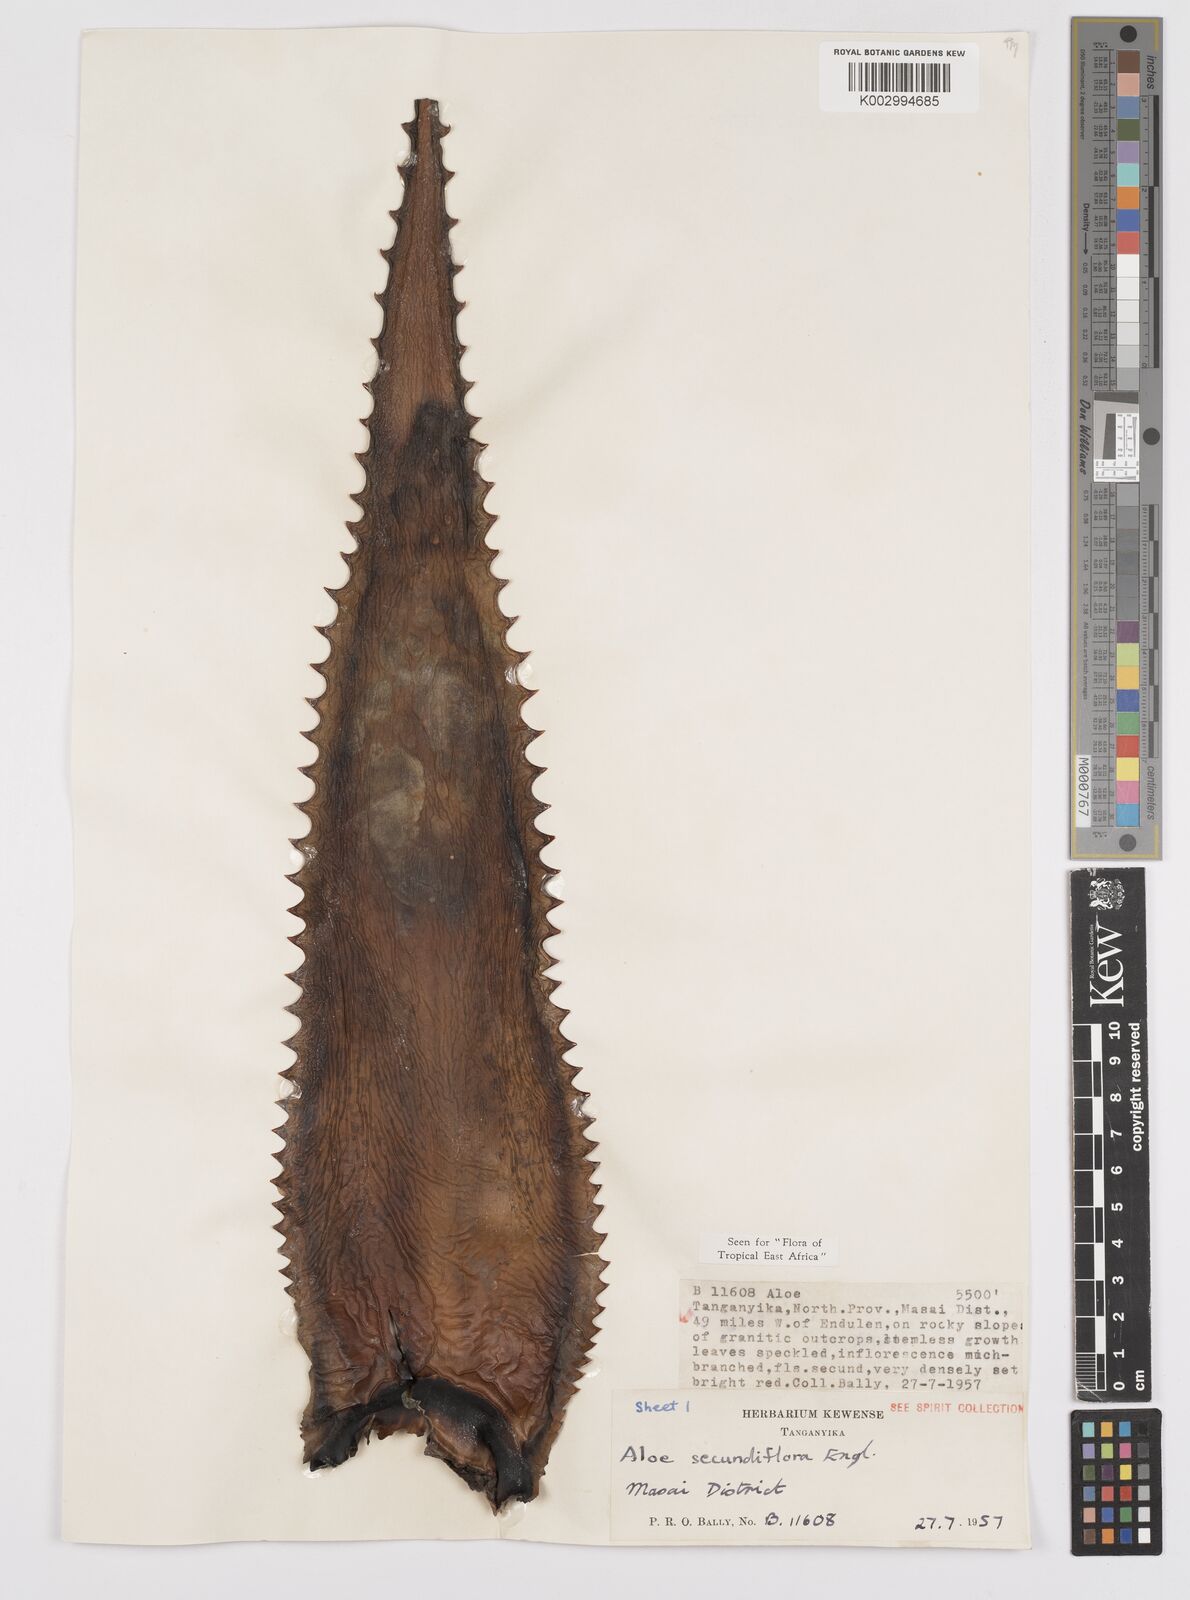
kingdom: Plantae
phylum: Tracheophyta
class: Liliopsida
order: Asparagales
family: Asphodelaceae
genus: Aloe
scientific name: Aloe secundiflora
